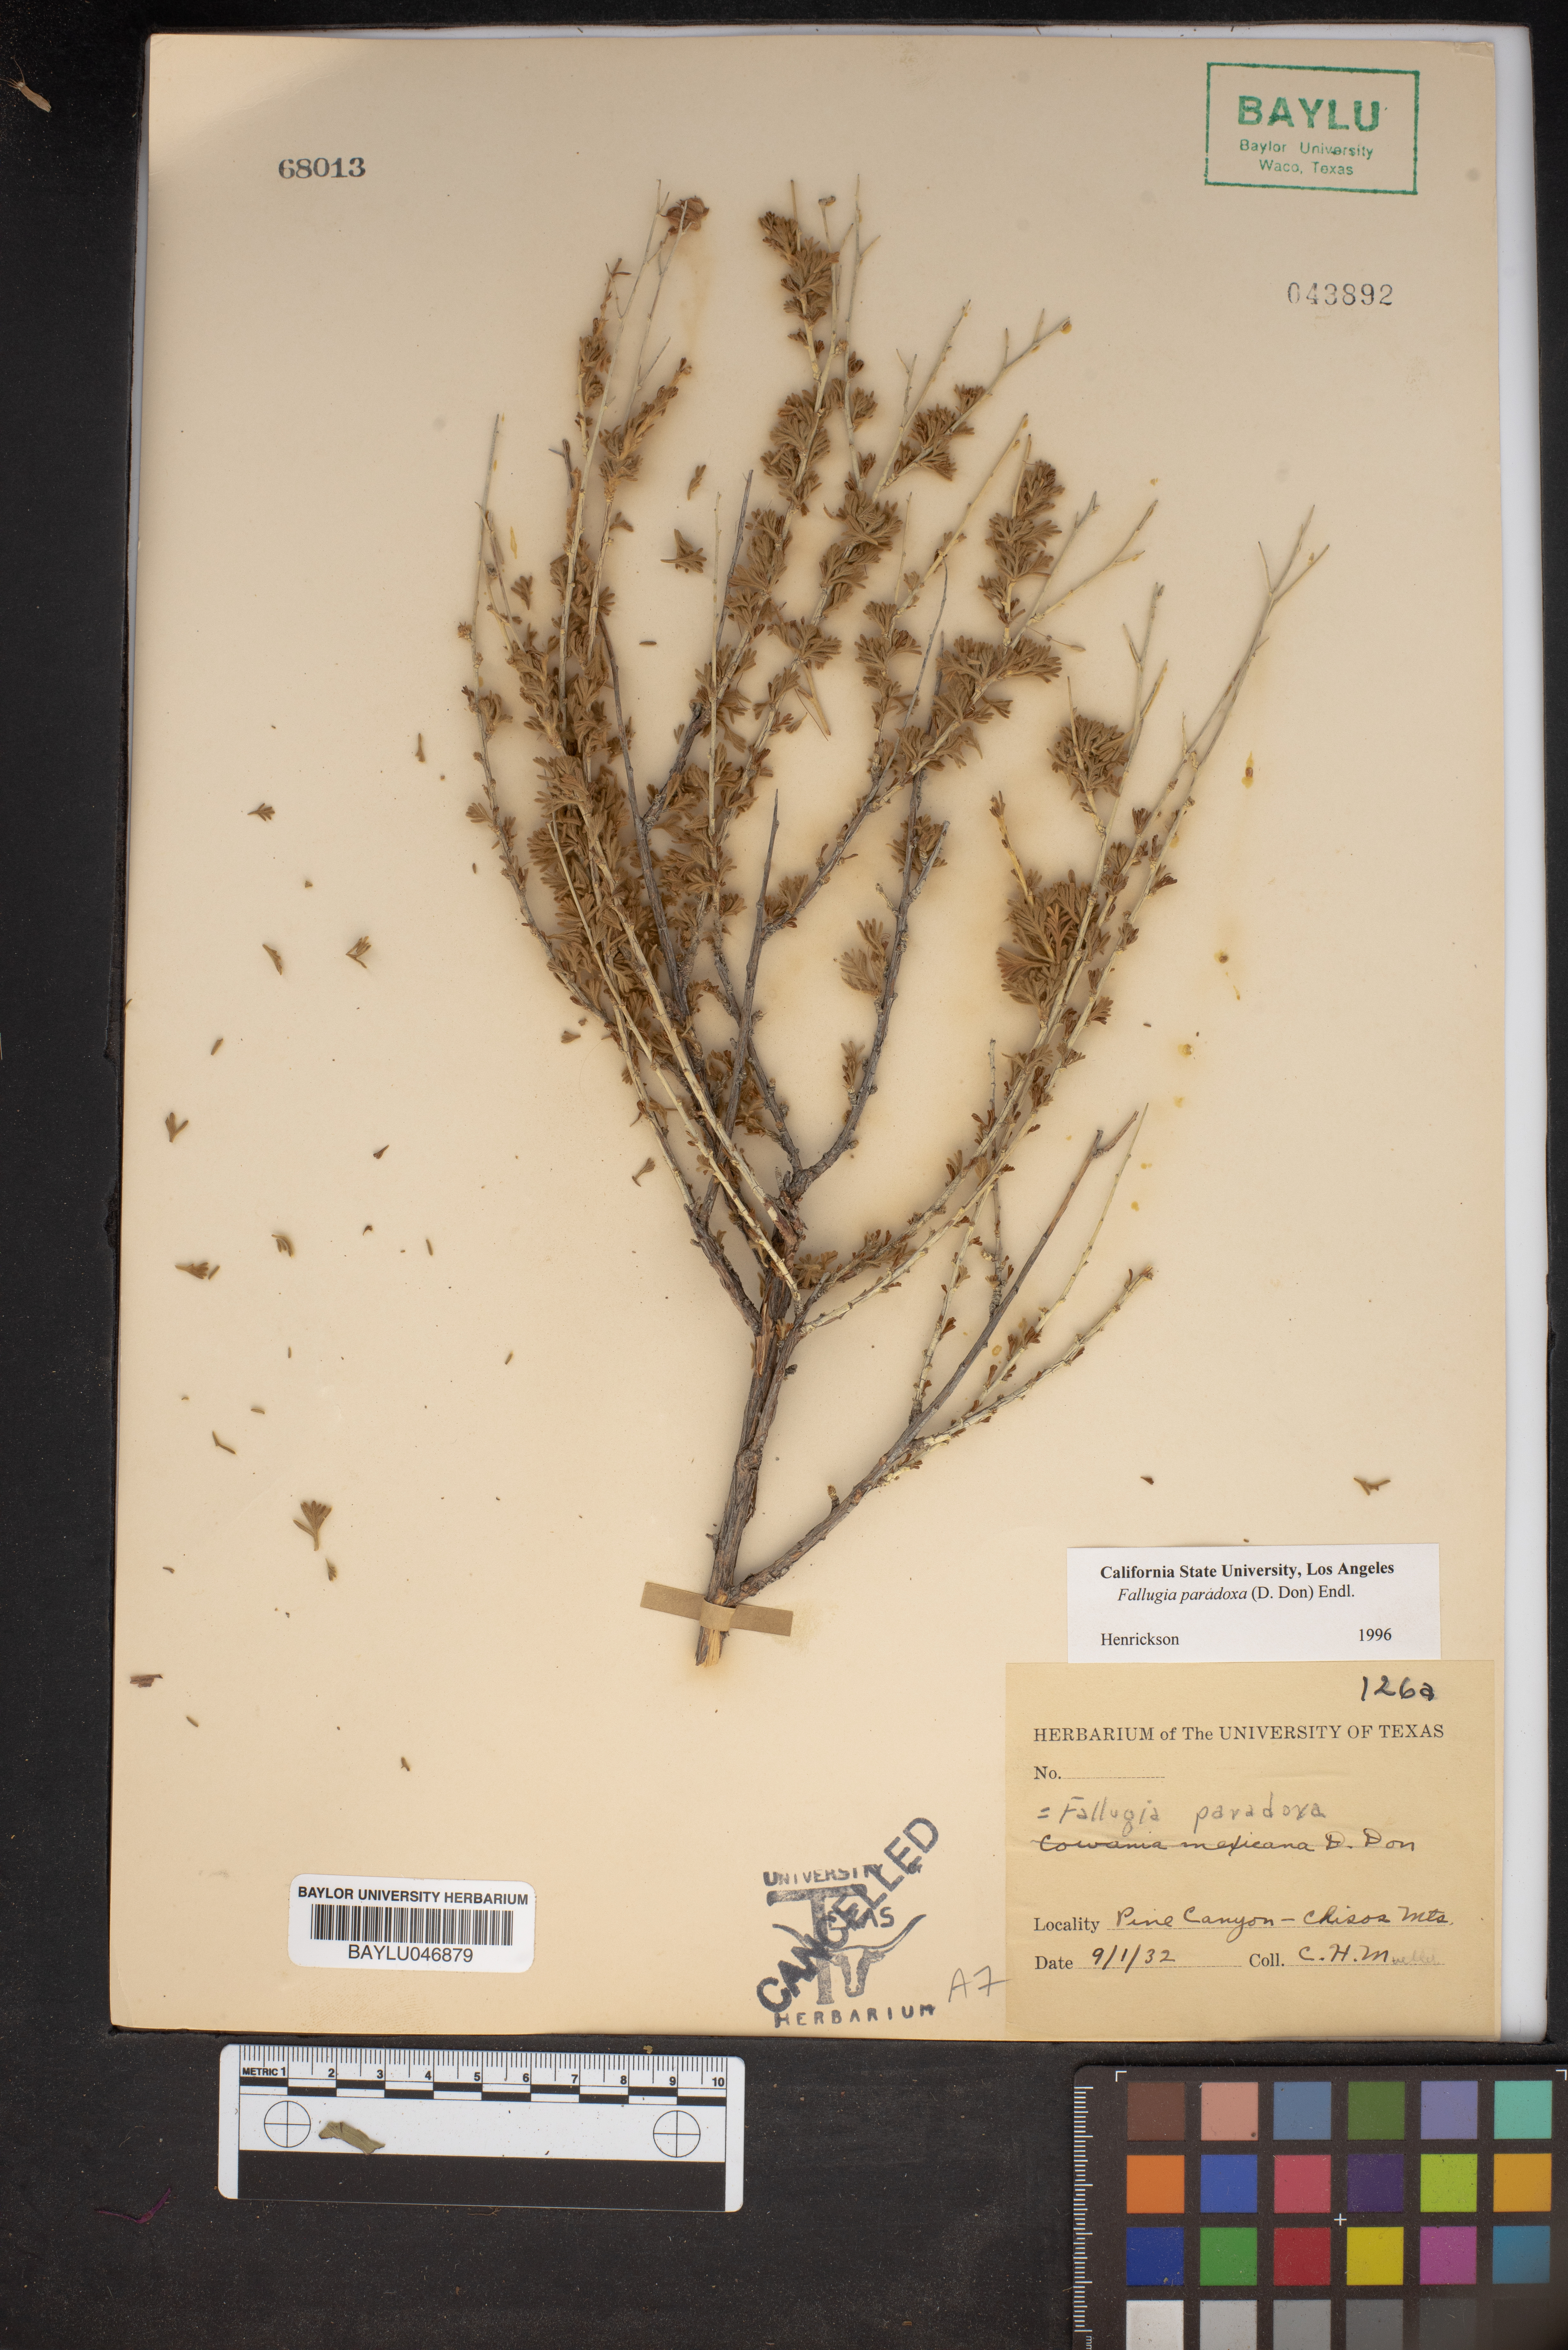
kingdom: Plantae
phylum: Tracheophyta
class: Magnoliopsida
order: Rosales
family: Rosaceae
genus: Fallugia
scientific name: Fallugia paradoxa
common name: Apache-plume
